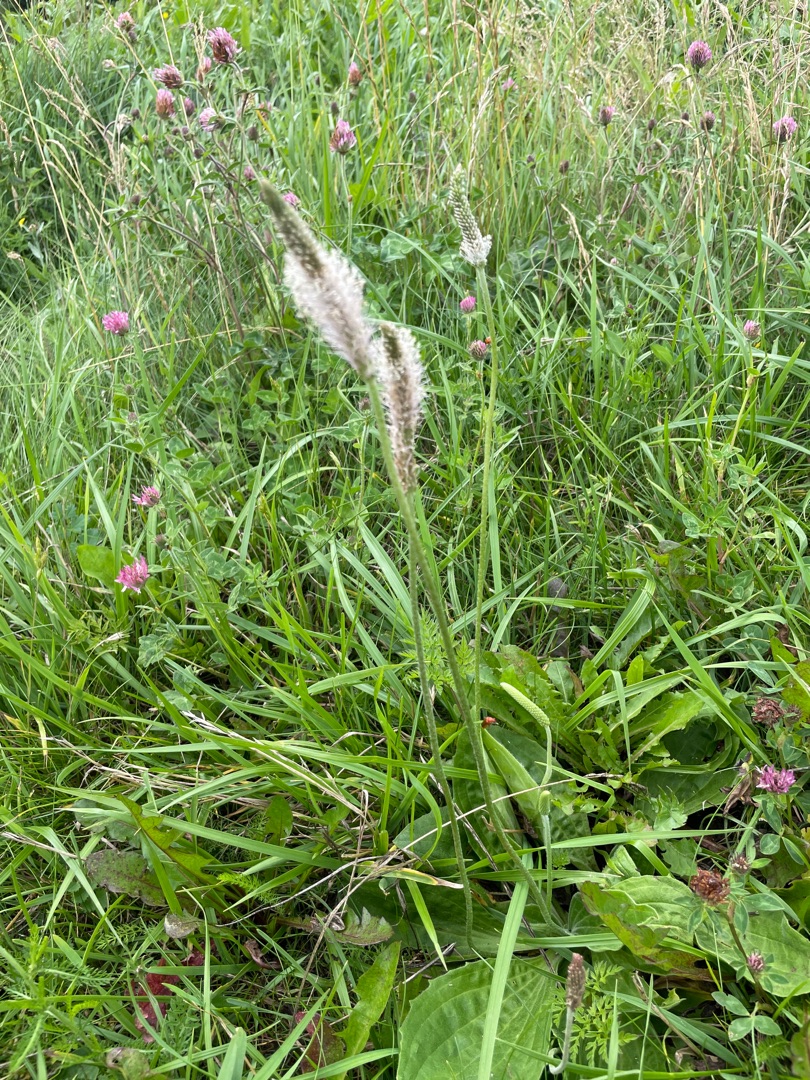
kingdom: Plantae
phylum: Tracheophyta
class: Magnoliopsida
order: Lamiales
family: Plantaginaceae
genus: Plantago
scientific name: Plantago media
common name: Dunet vejbred
